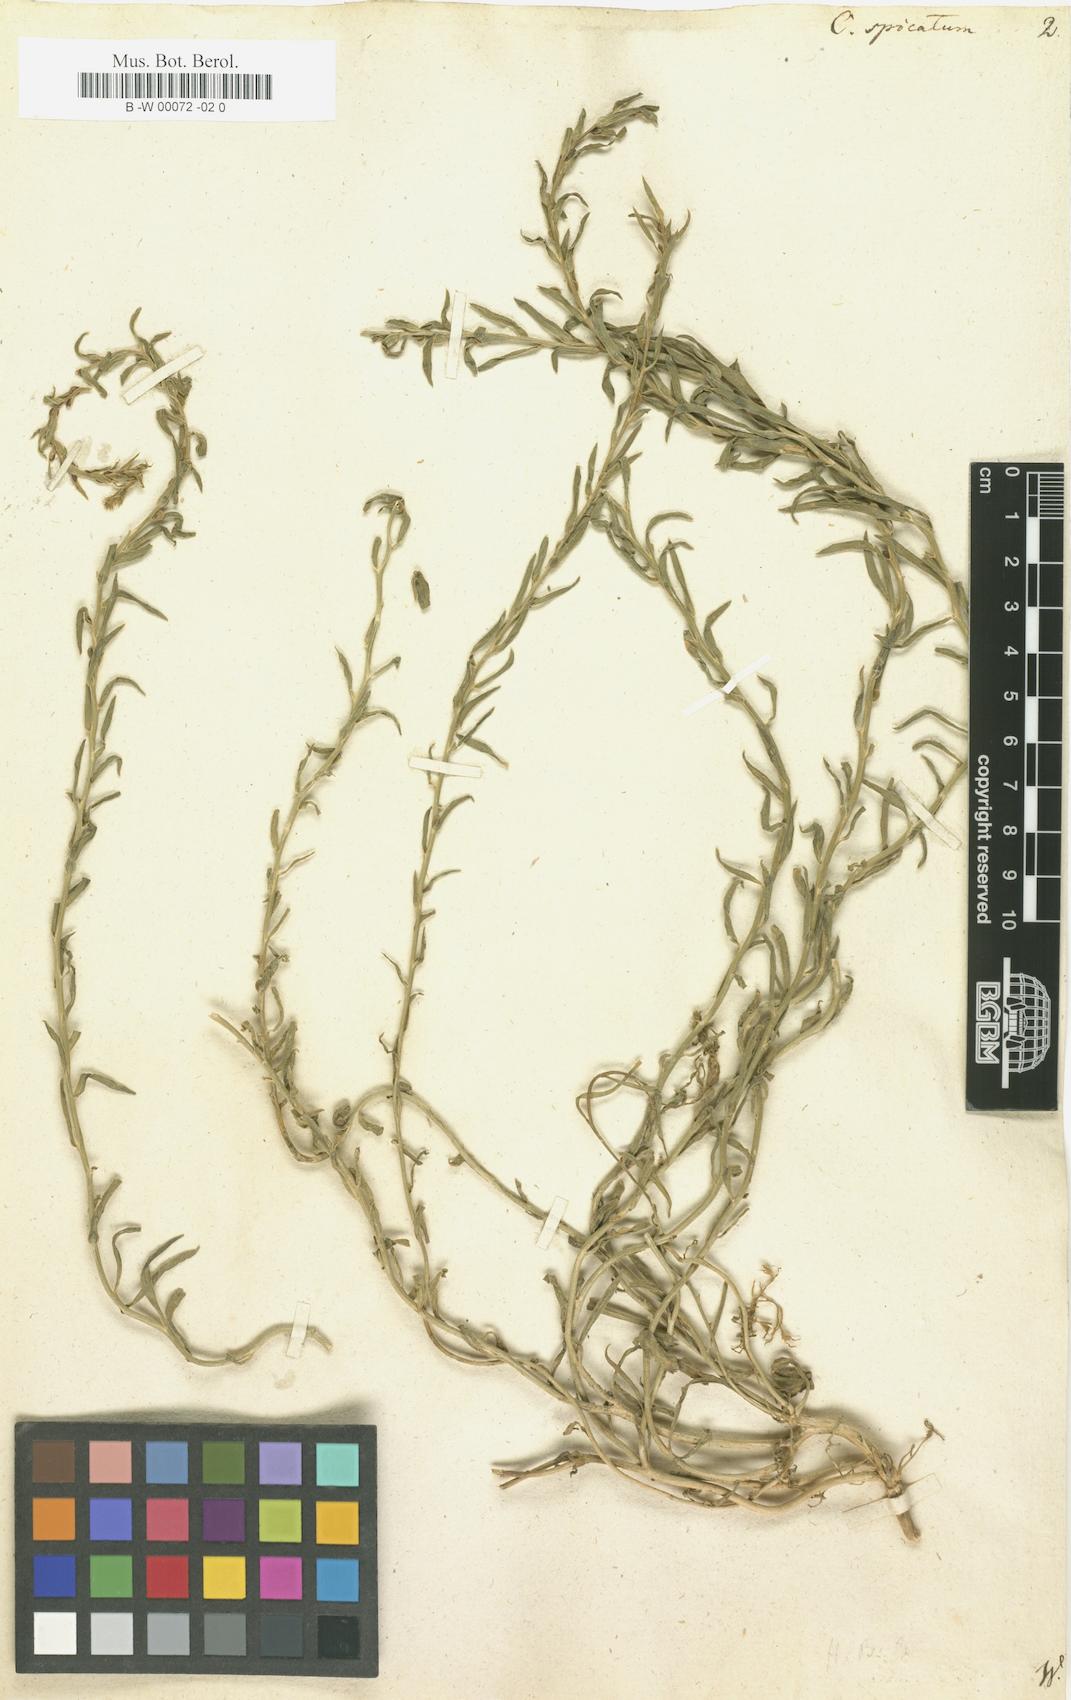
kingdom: Plantae
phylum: Tracheophyta
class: Magnoliopsida
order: Caryophyllales
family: Amaranthaceae
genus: Corispermum
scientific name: Corispermum spicatum
